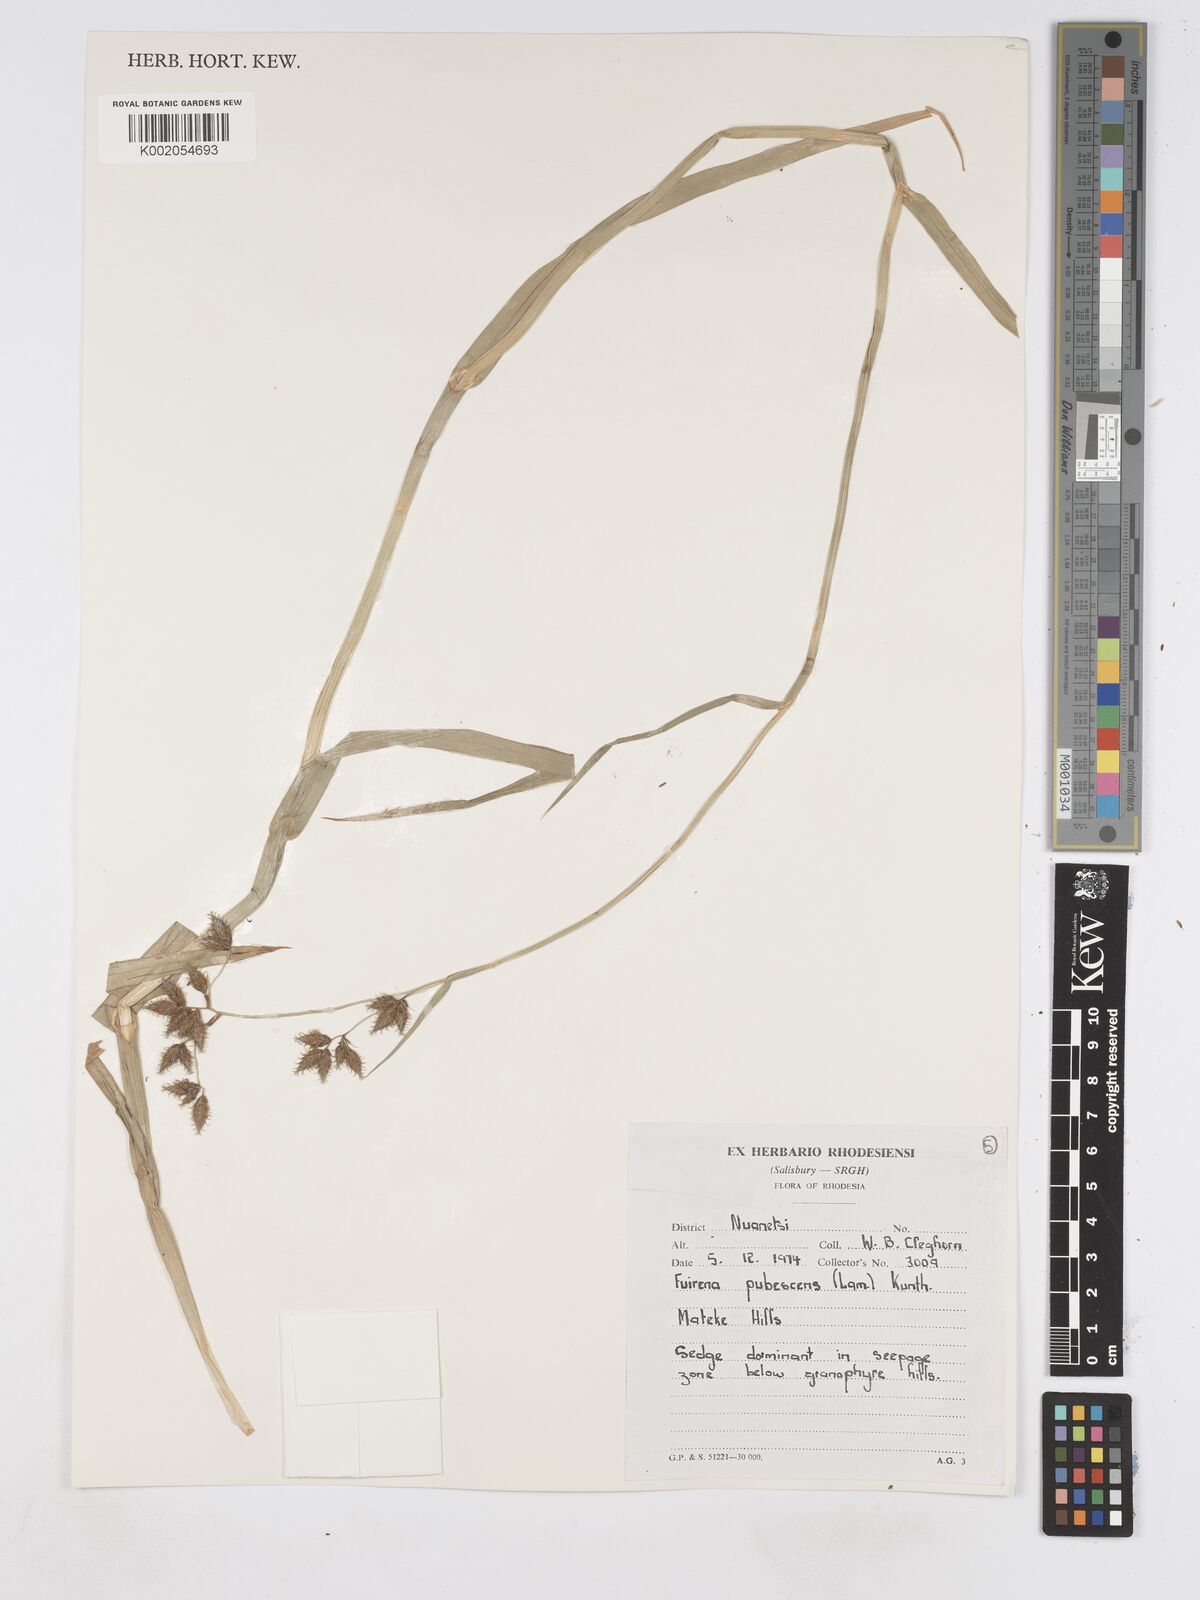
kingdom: Plantae
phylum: Tracheophyta
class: Liliopsida
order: Poales
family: Cyperaceae
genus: Fuirena
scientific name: Fuirena pachyrrhiza
